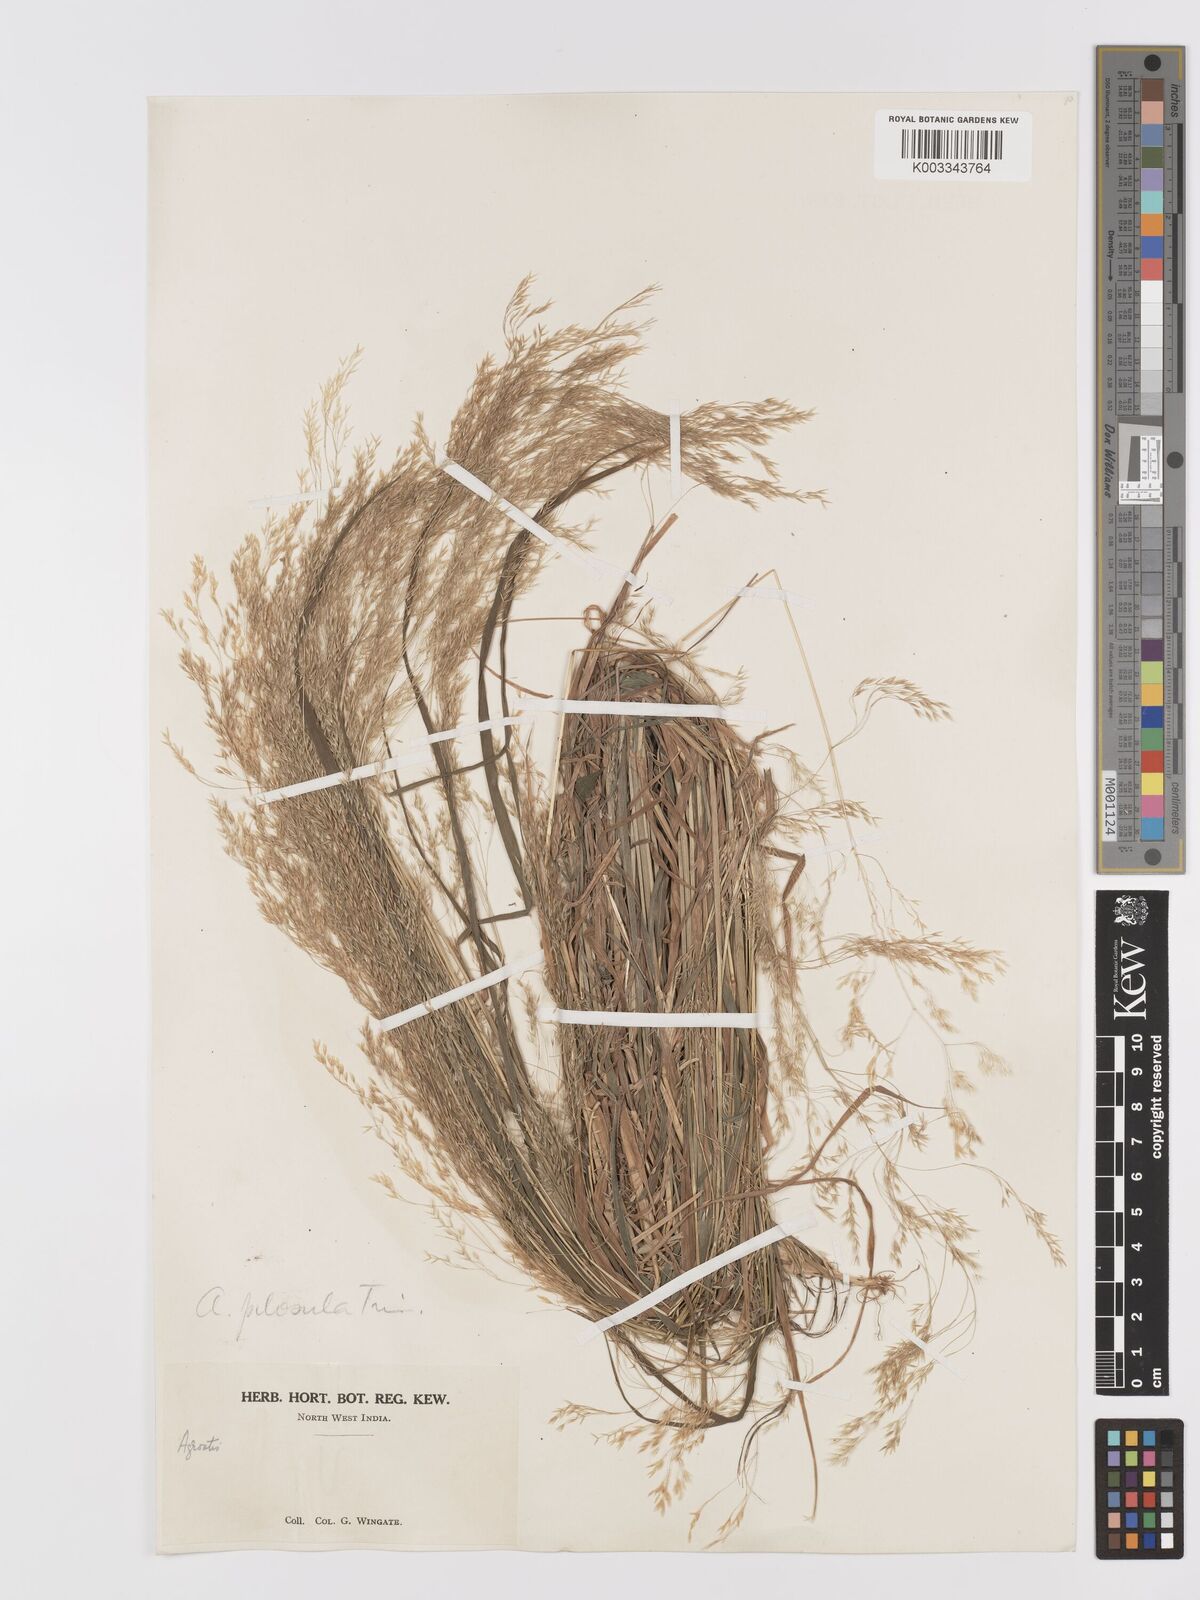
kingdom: Plantae
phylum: Tracheophyta
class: Liliopsida
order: Poales
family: Poaceae
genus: Agrostis
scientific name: Agrostis pilosula
